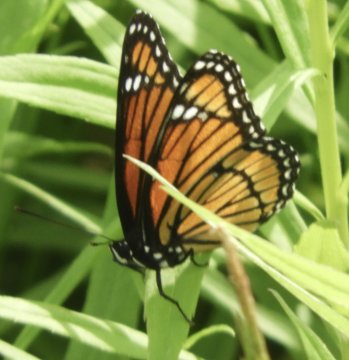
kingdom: Animalia
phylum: Arthropoda
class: Insecta
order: Lepidoptera
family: Nymphalidae
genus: Limenitis
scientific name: Limenitis archippus
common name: Viceroy
